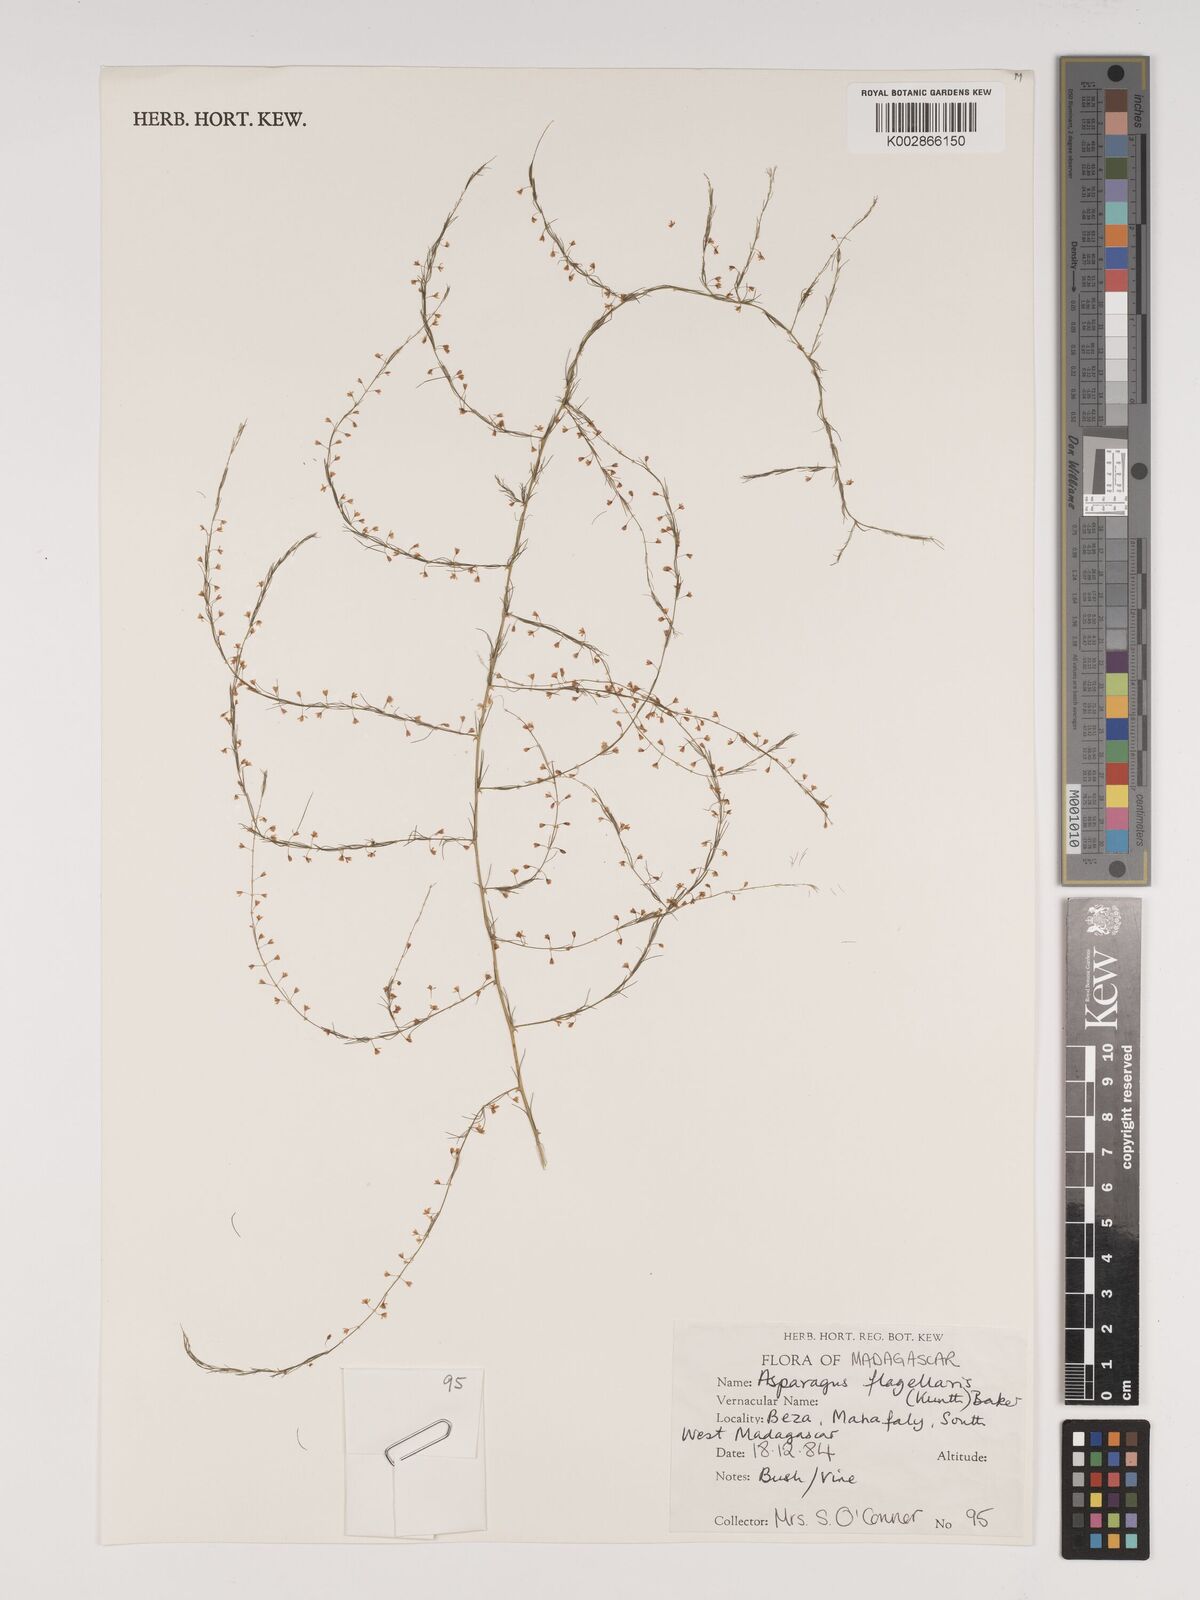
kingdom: Plantae
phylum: Tracheophyta
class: Liliopsida
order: Asparagales
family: Asparagaceae
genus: Asparagus
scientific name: Asparagus flagellaris
